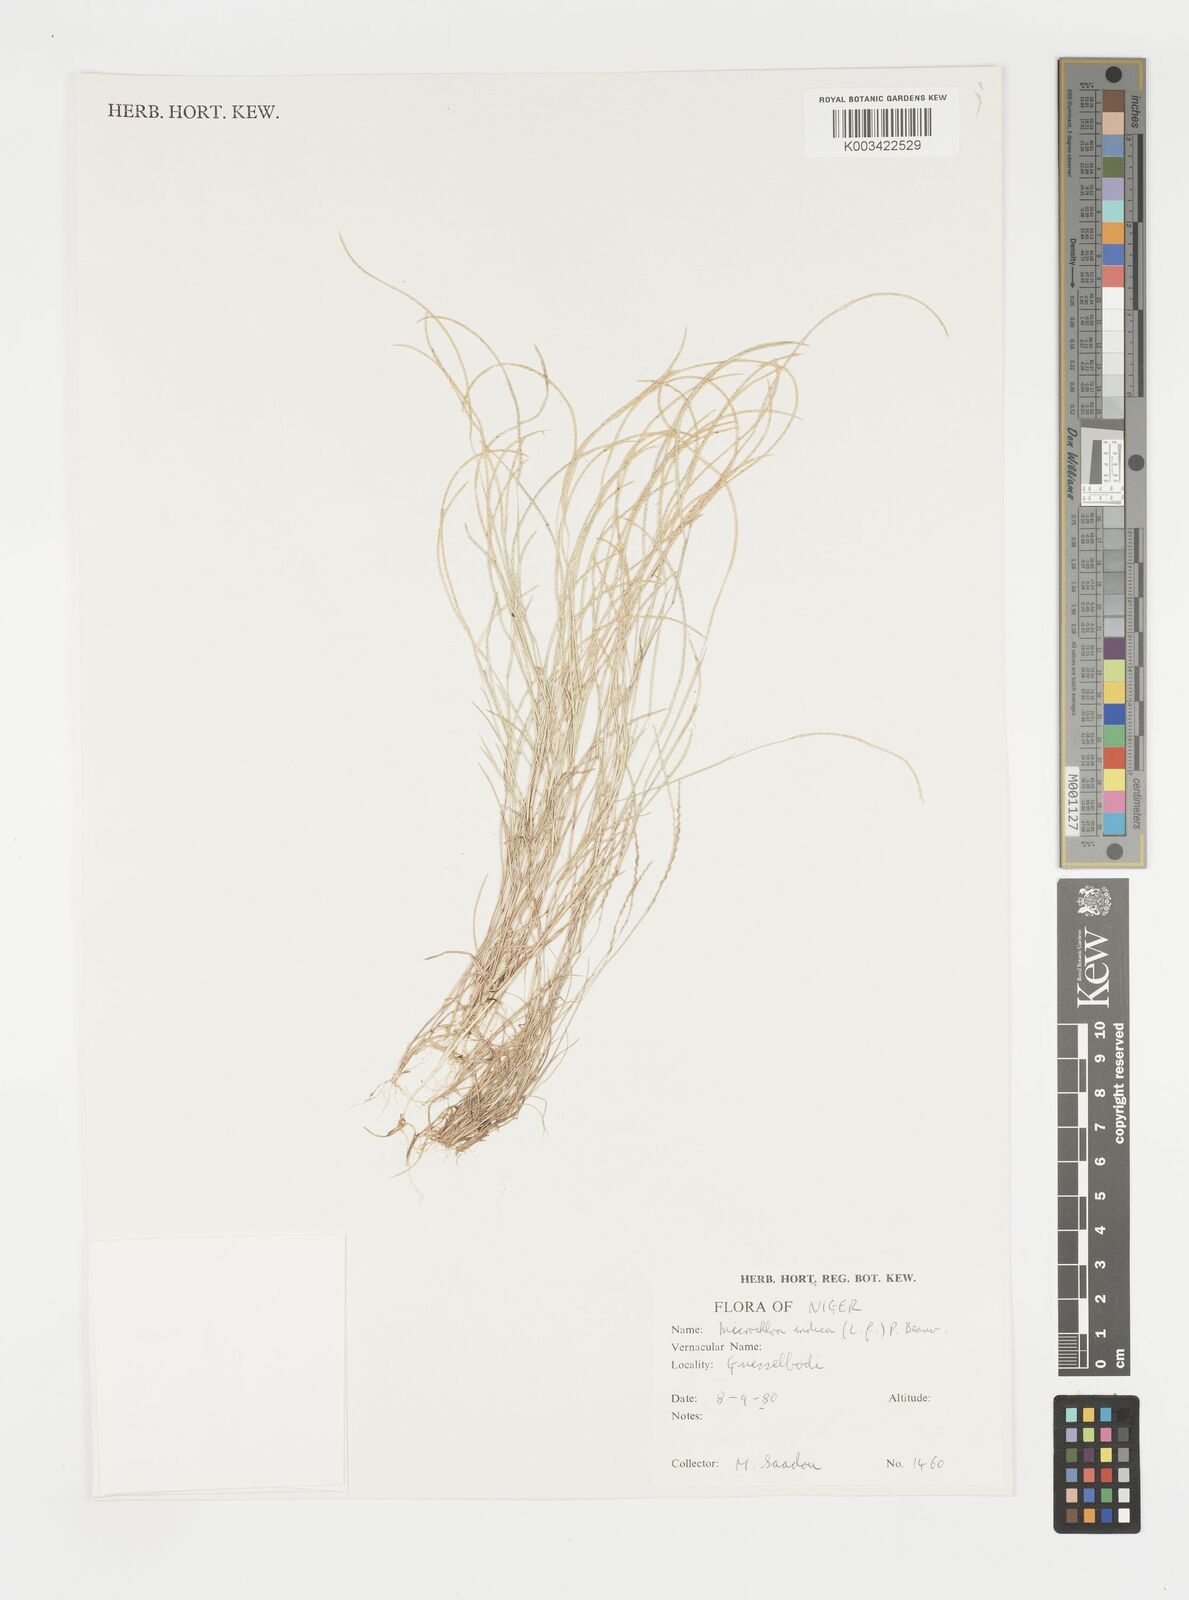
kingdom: Plantae
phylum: Tracheophyta
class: Liliopsida
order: Poales
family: Poaceae
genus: Microchloa
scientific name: Microchloa indica
